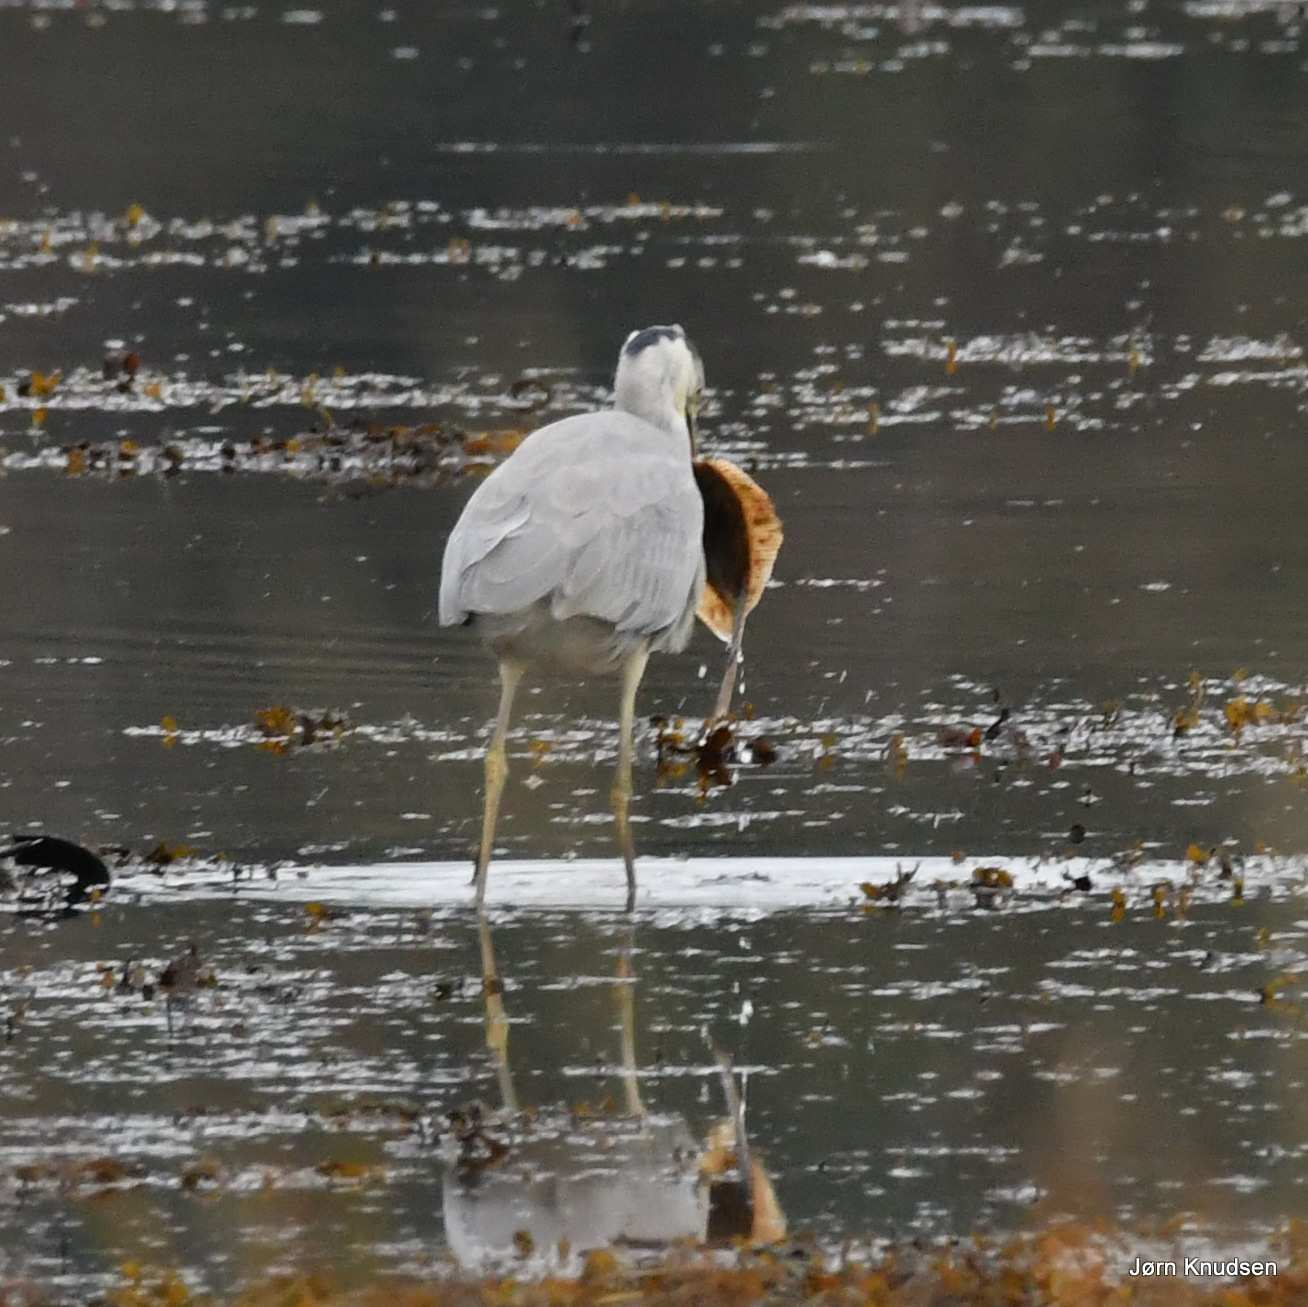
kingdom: Animalia
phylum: Chordata
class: Aves
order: Pelecaniformes
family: Ardeidae
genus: Ardea
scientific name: Ardea cinerea
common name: Fiskehejre
